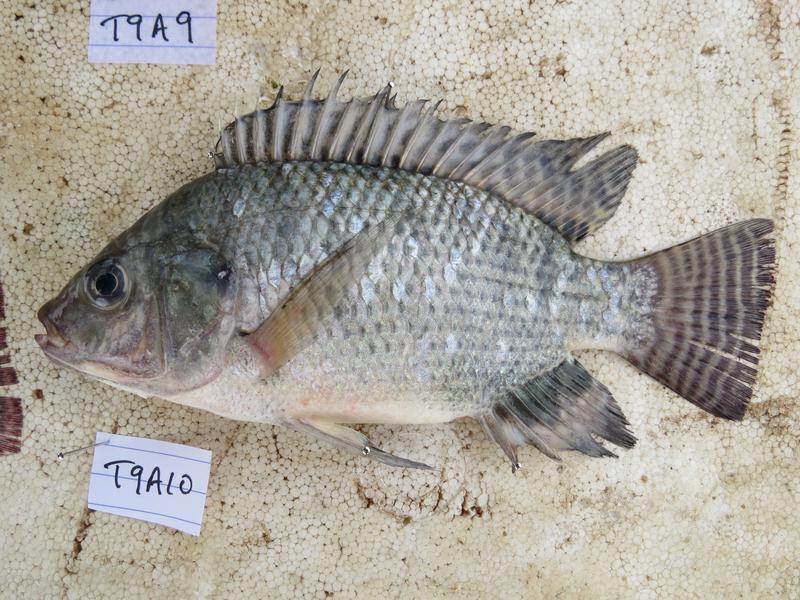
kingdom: Animalia
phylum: Chordata
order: Perciformes
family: Cichlidae
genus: Oreochromis
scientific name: Oreochromis niloticus
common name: Nile tilapia
